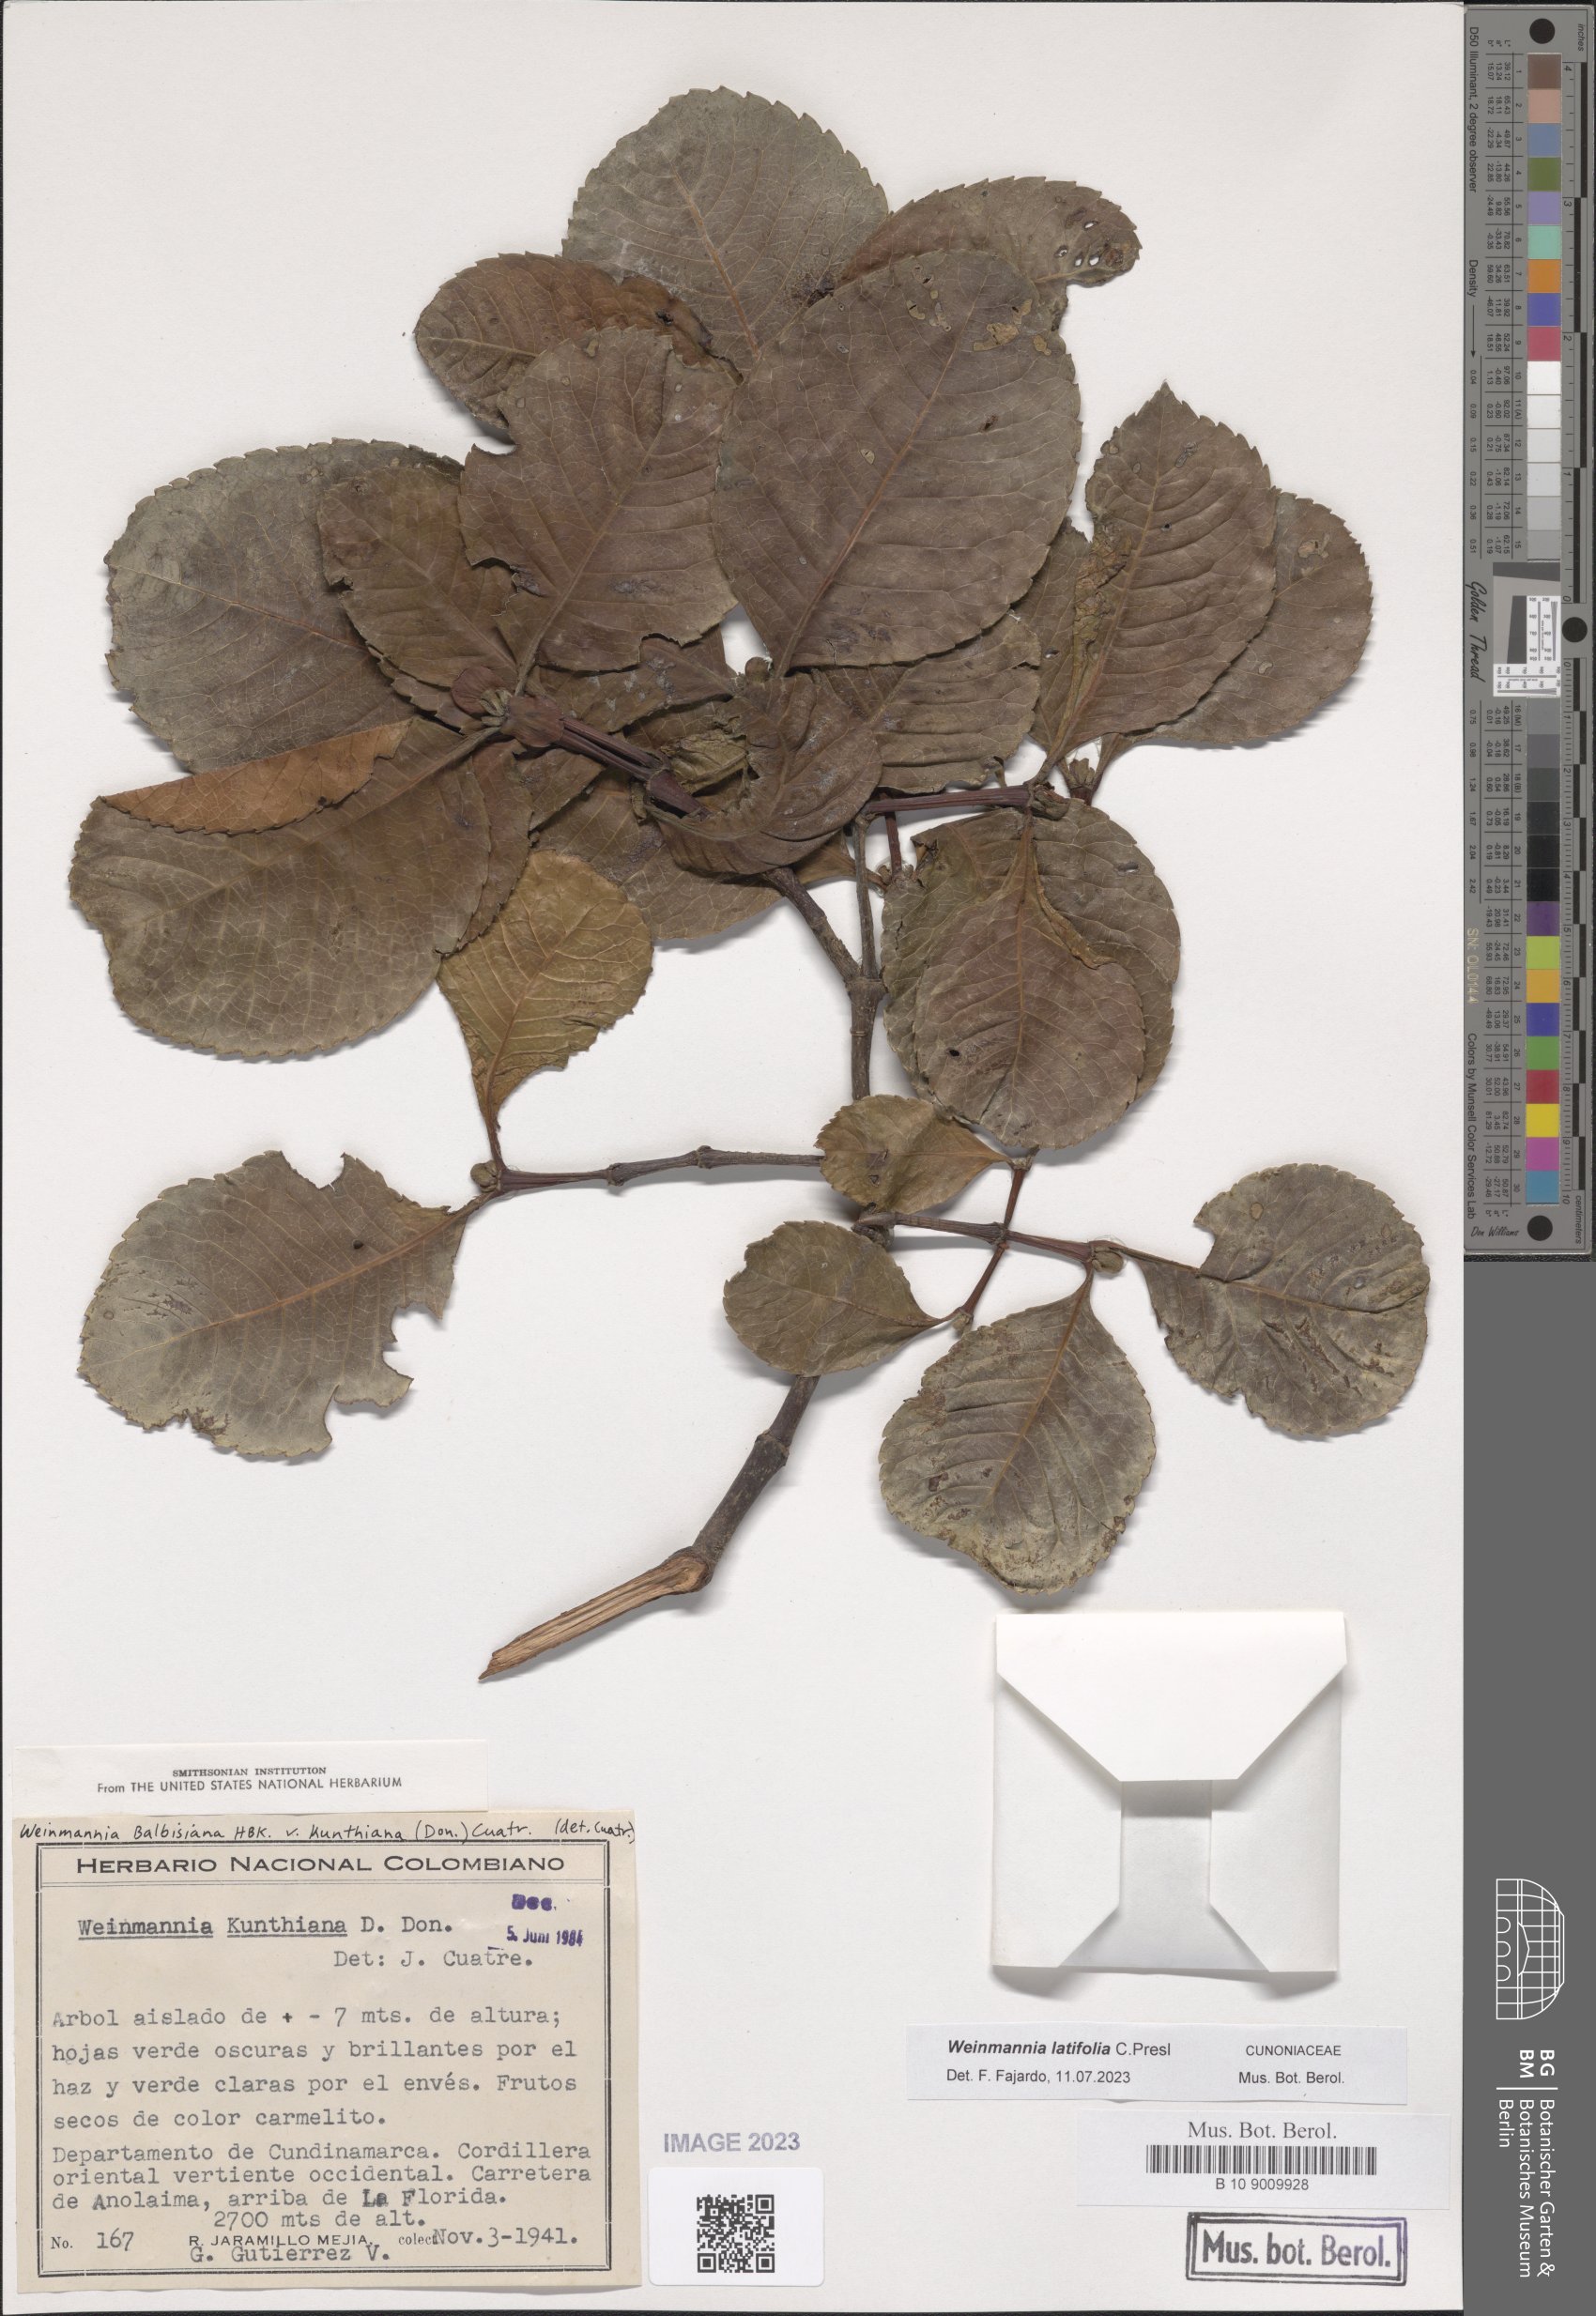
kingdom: Plantae
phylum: Tracheophyta
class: Magnoliopsida
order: Oxalidales
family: Cunoniaceae
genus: Weinmannia
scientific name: Weinmannia latifolia
